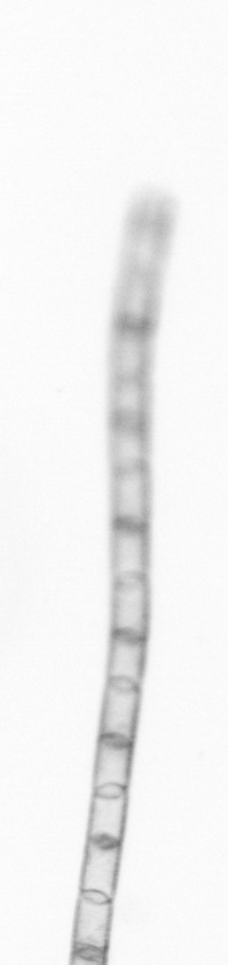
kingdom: Chromista
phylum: Ochrophyta
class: Bacillariophyceae
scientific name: Bacillariophyceae
